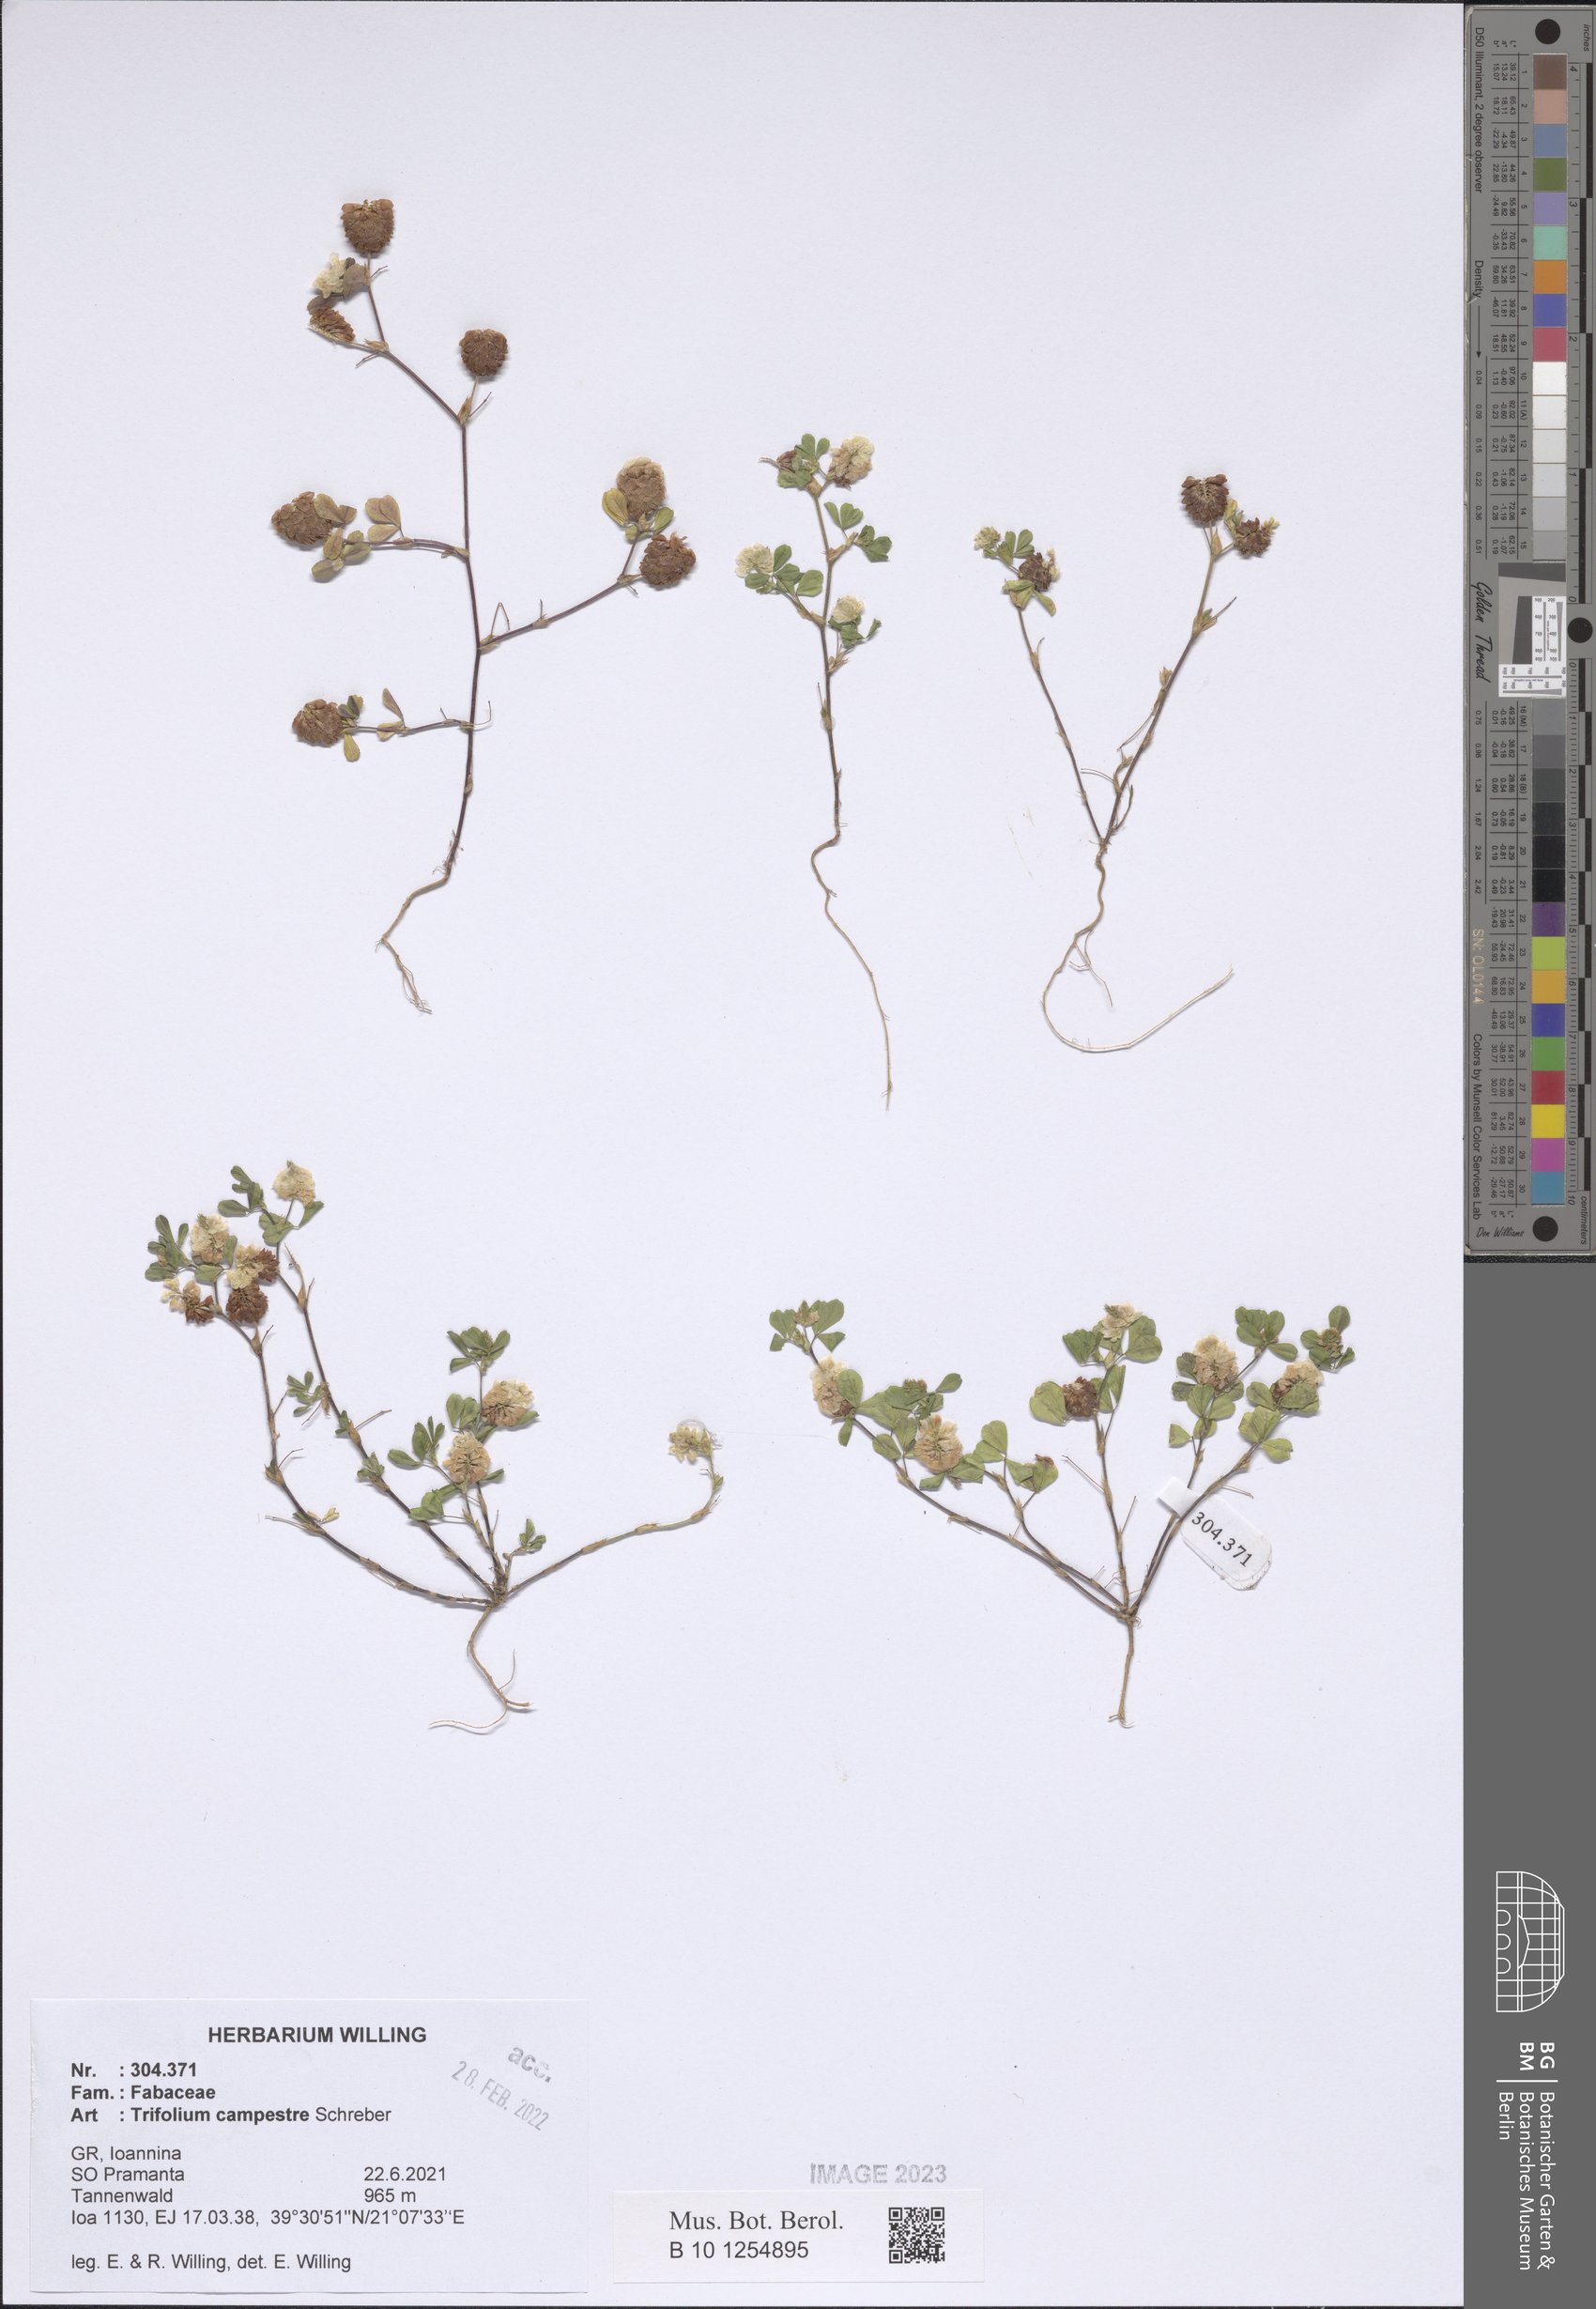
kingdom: Plantae
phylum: Tracheophyta
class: Magnoliopsida
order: Fabales
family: Fabaceae
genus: Trifolium
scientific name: Trifolium campestre
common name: Field clover
